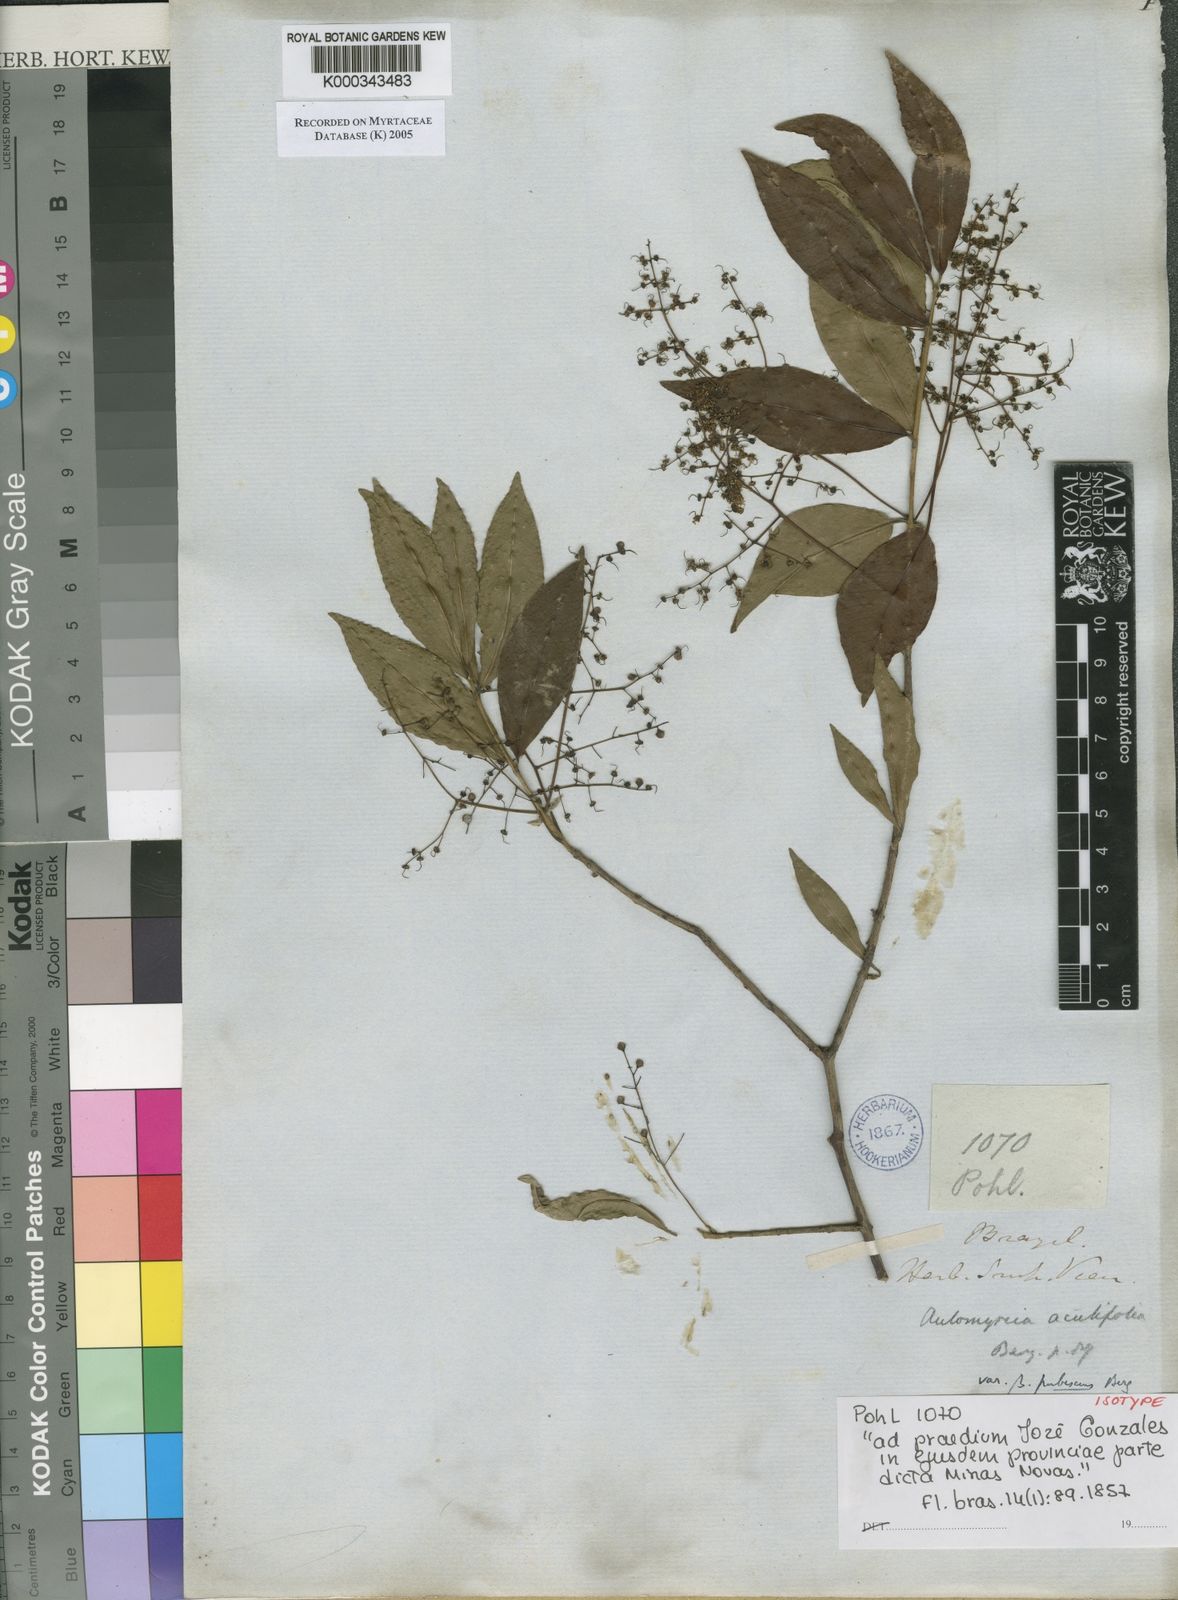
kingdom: Plantae
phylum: Tracheophyta
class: Magnoliopsida
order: Myrtales
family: Myrtaceae
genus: Myrcia
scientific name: Myrcia laruotteana
